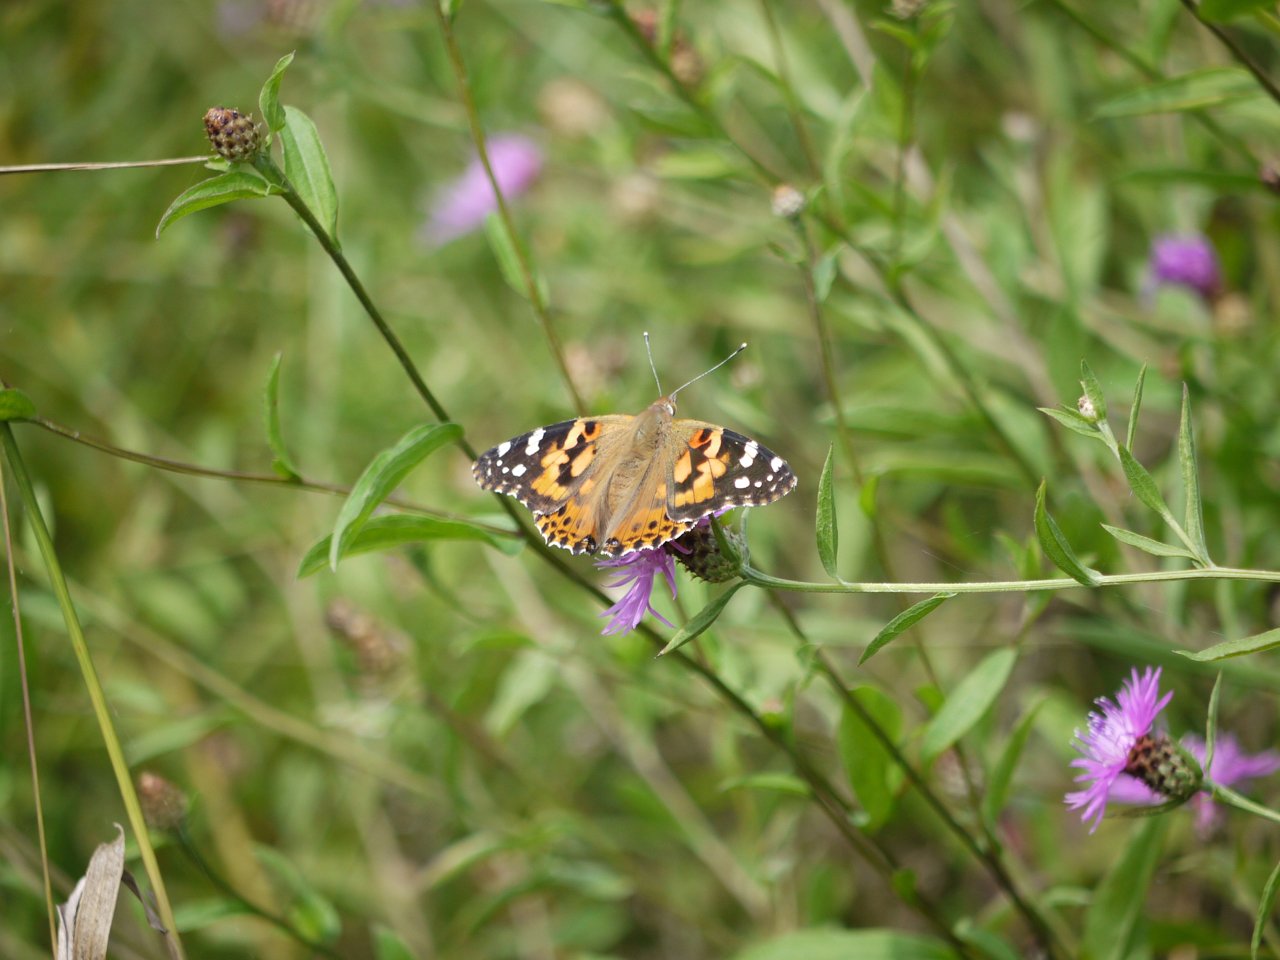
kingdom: Animalia
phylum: Arthropoda
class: Insecta
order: Lepidoptera
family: Nymphalidae
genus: Vanessa
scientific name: Vanessa cardui
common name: Painted Lady
